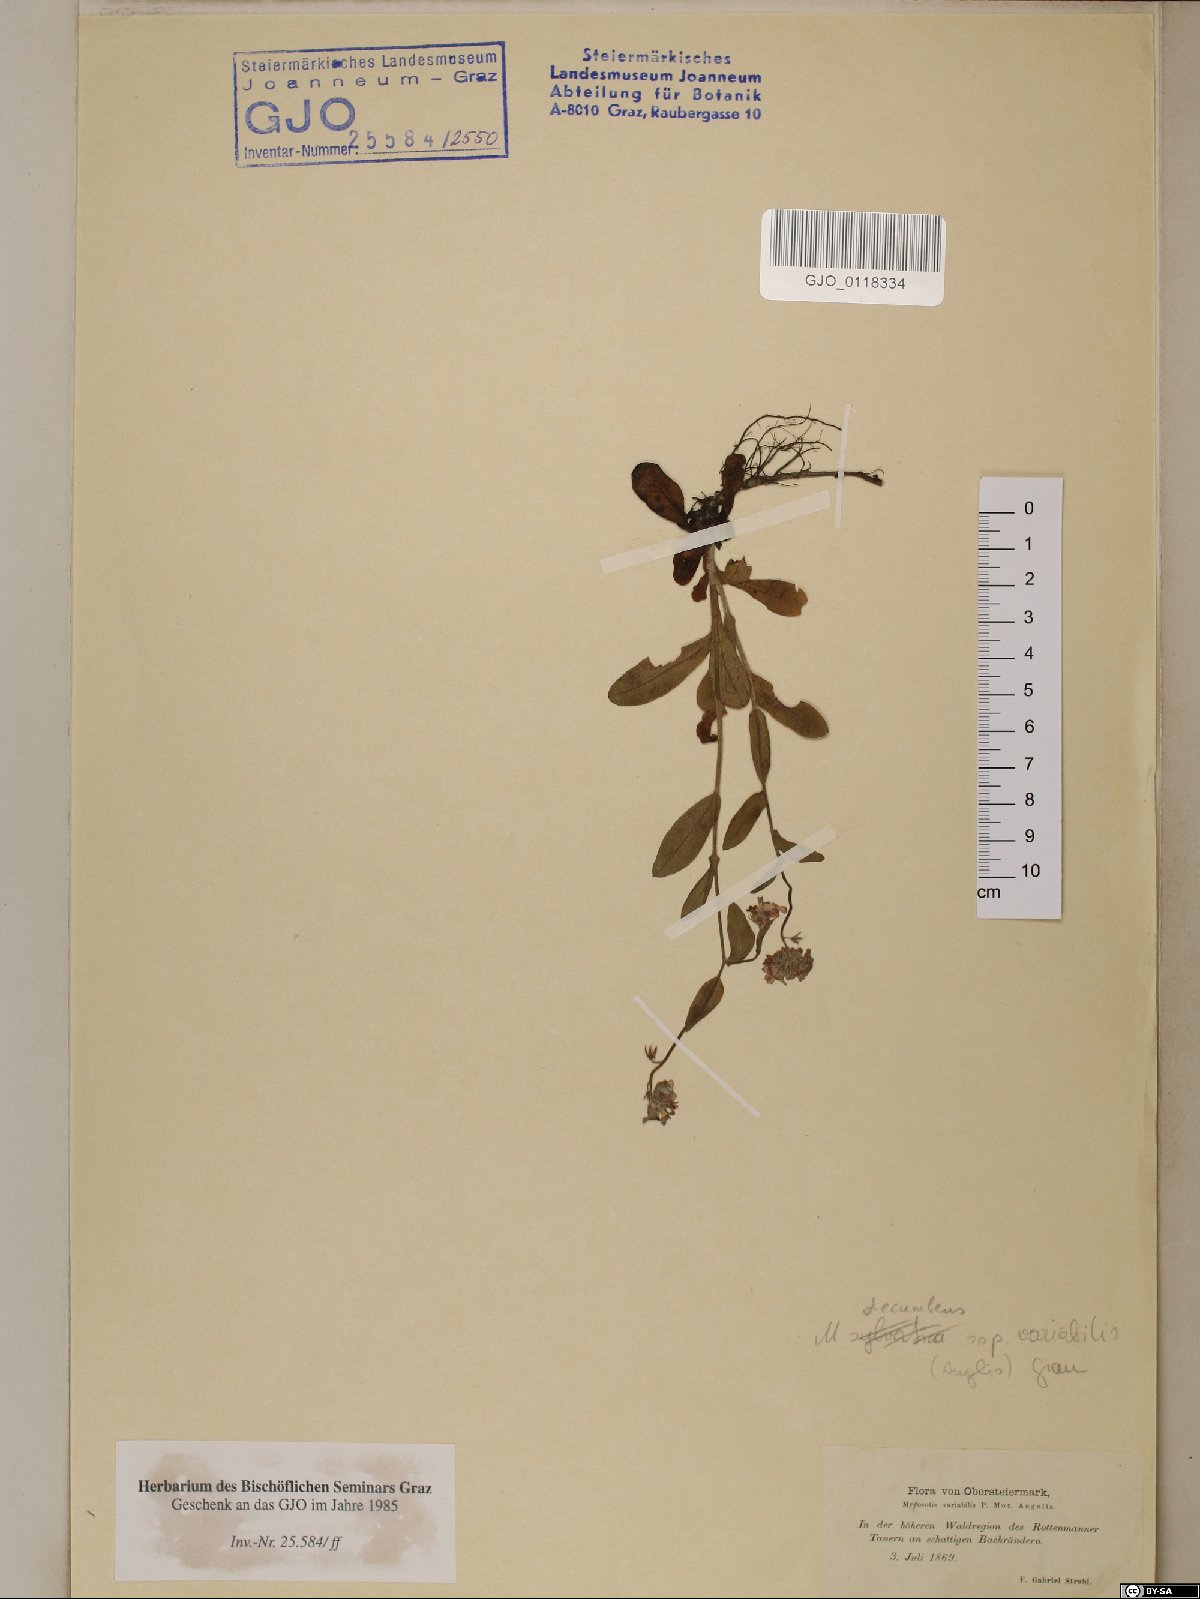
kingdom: Plantae
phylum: Tracheophyta
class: Magnoliopsida
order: Boraginales
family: Boraginaceae
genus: Myosotis
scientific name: Myosotis decumbens
